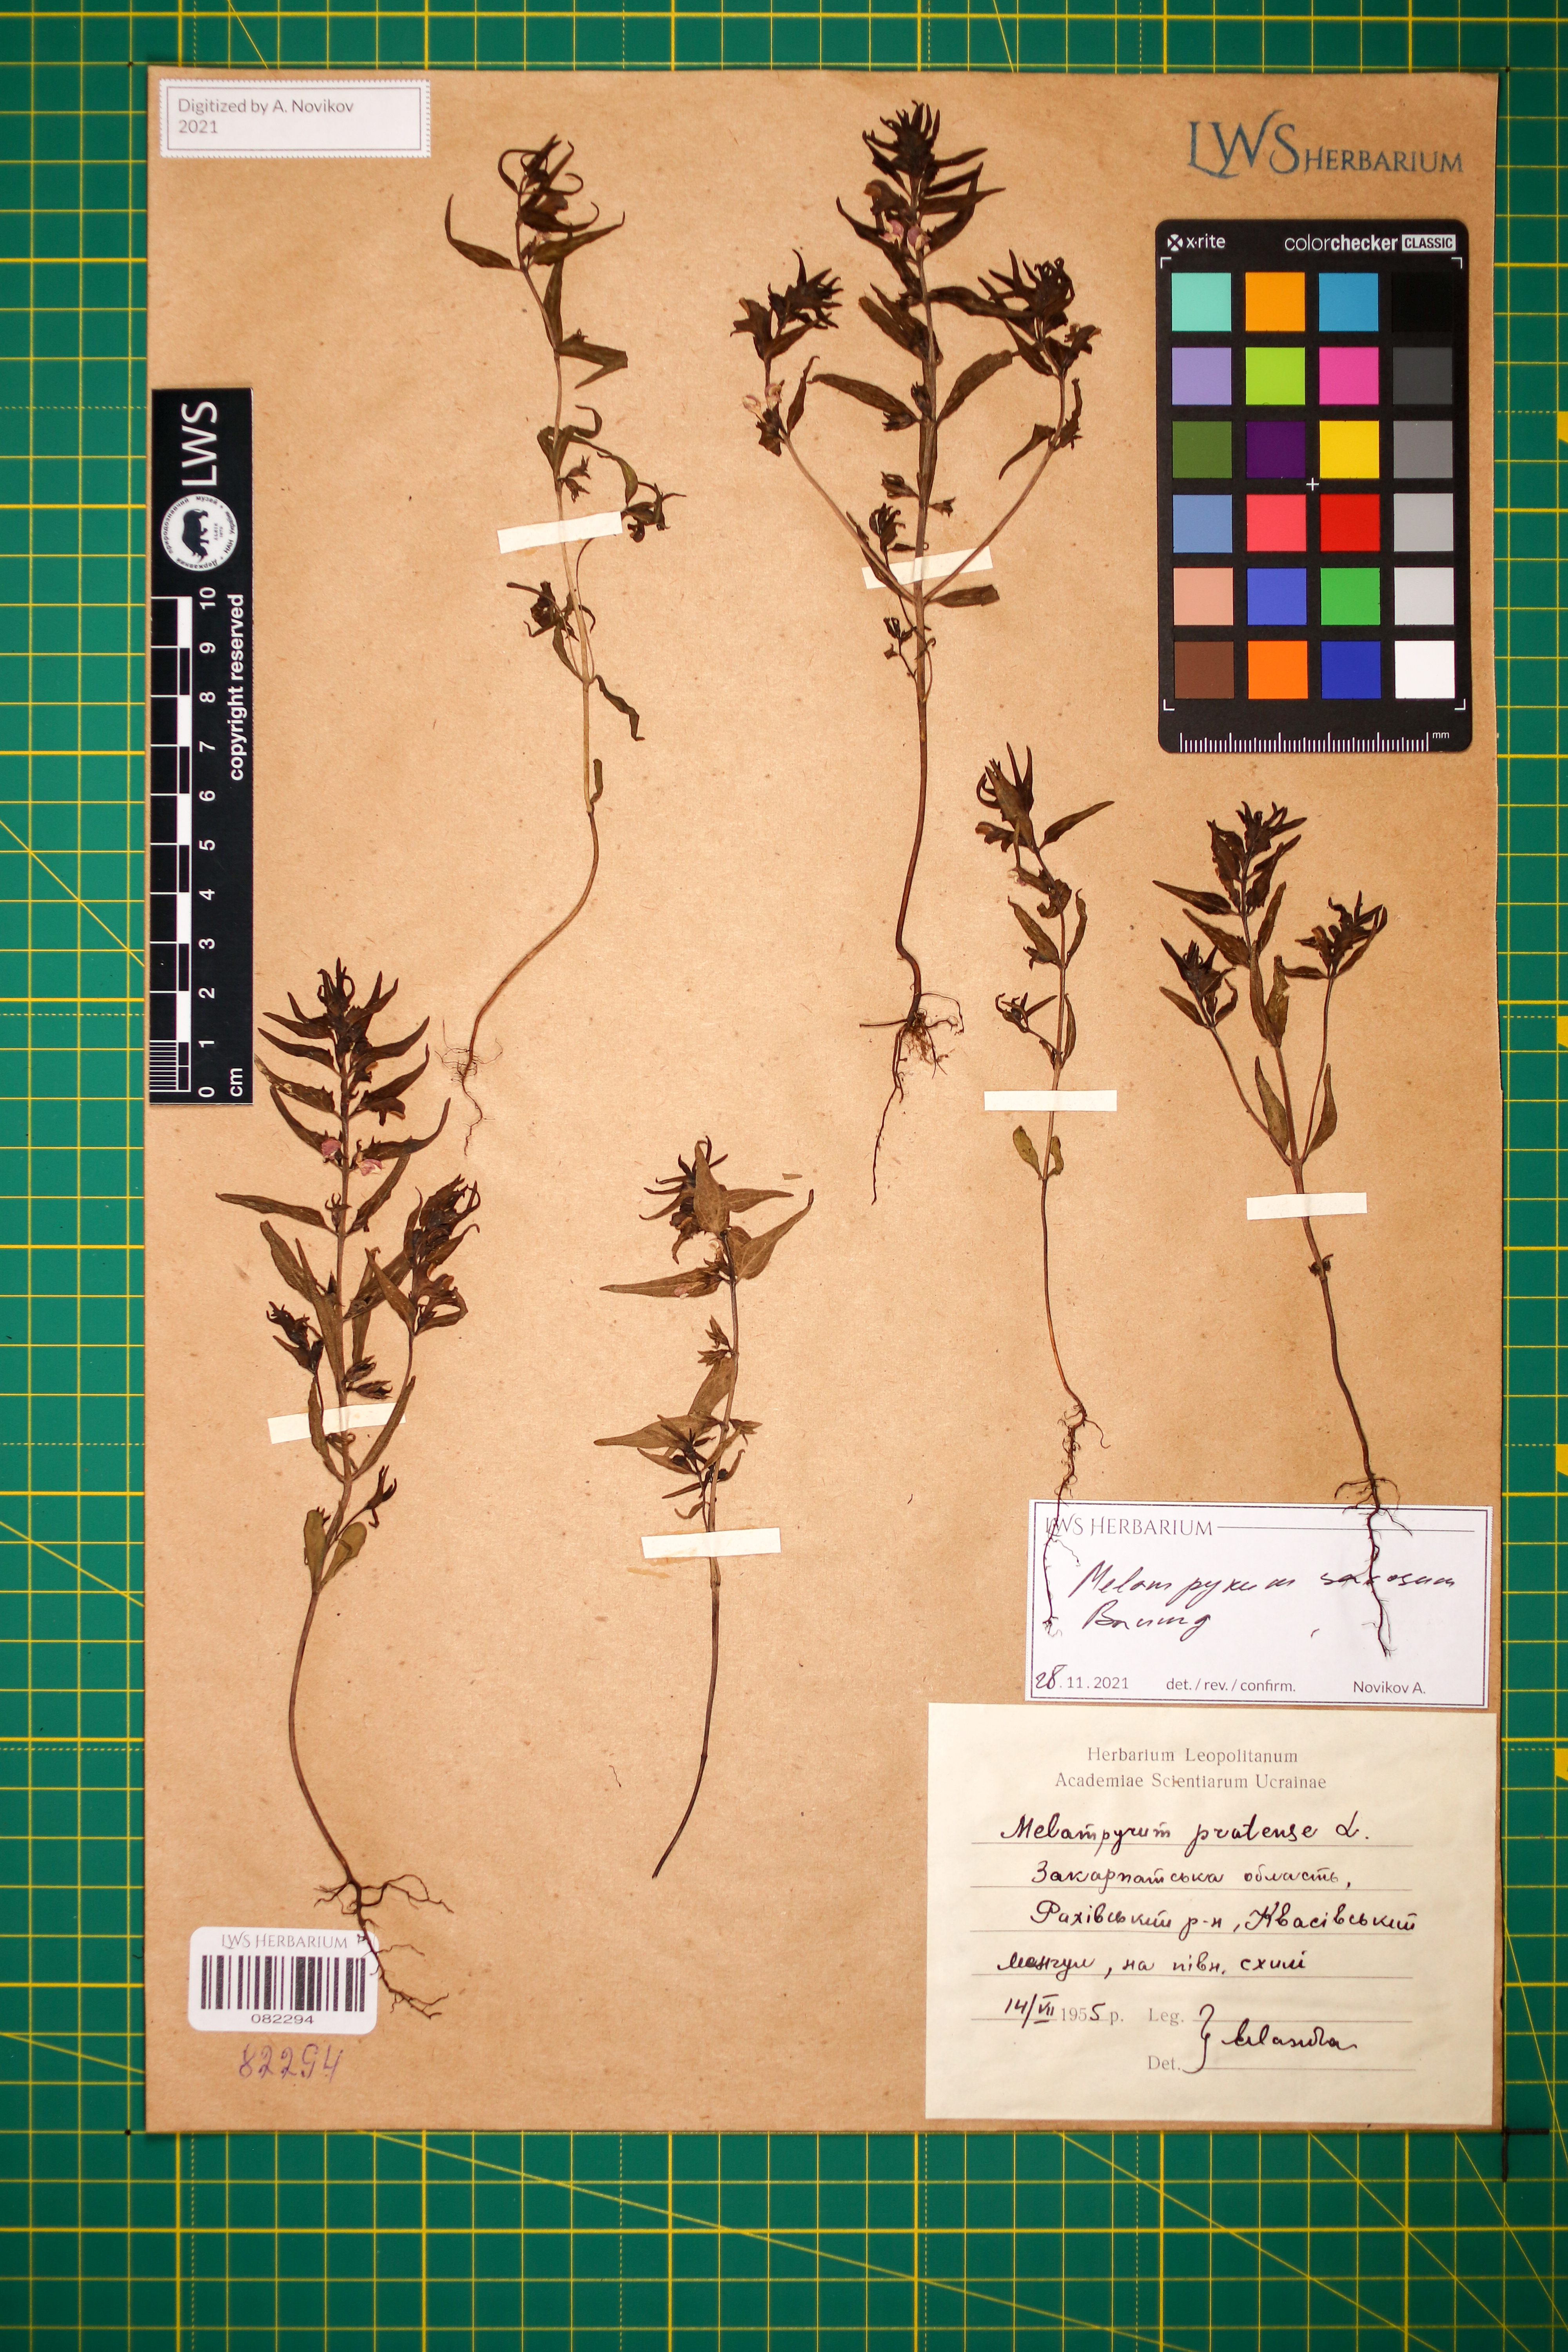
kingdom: Plantae
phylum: Tracheophyta
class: Magnoliopsida
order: Lamiales
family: Orobanchaceae
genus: Melampyrum
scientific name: Melampyrum saxosum
